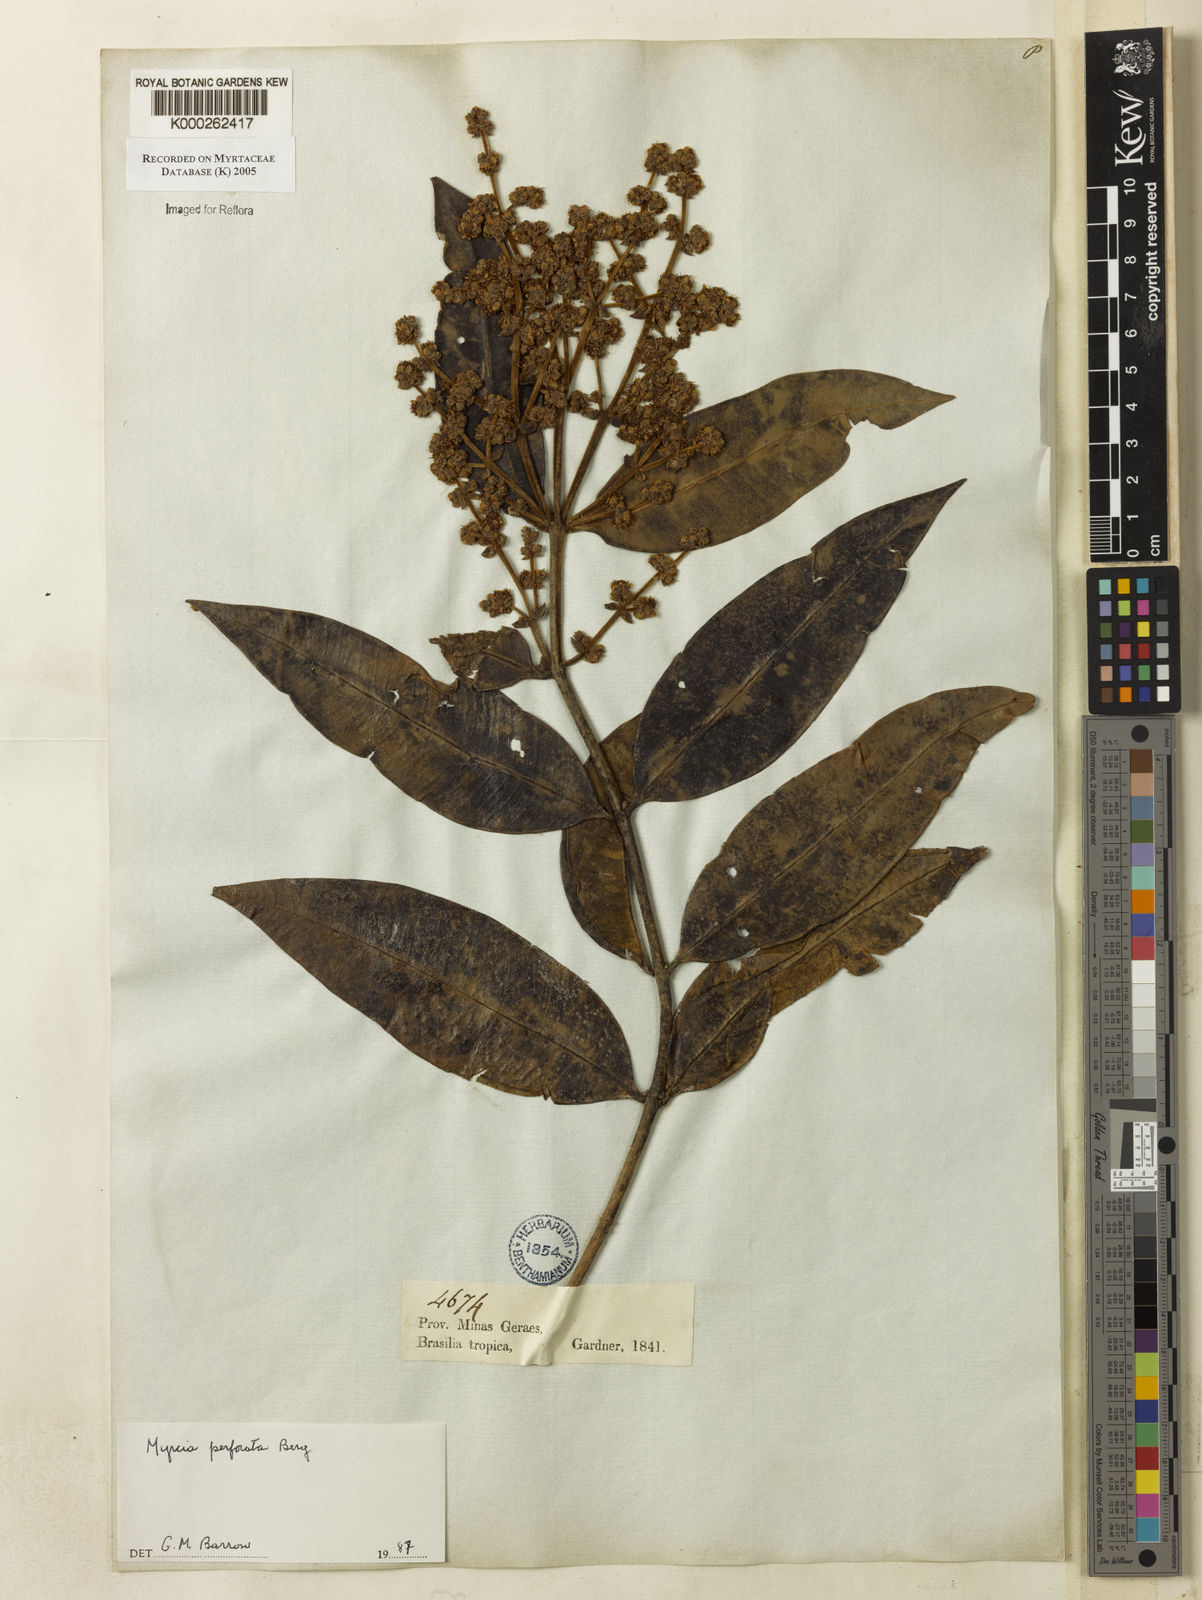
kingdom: Plantae
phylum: Tracheophyta
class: Magnoliopsida
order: Myrtales
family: Myrtaceae
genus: Myrcia
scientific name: Myrcia perforata
